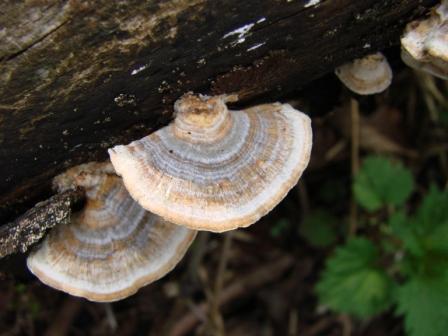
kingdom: Fungi
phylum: Basidiomycota
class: Agaricomycetes
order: Russulales
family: Stereaceae
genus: Stereum
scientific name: Stereum subtomentosum
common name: smuk lædersvamp
